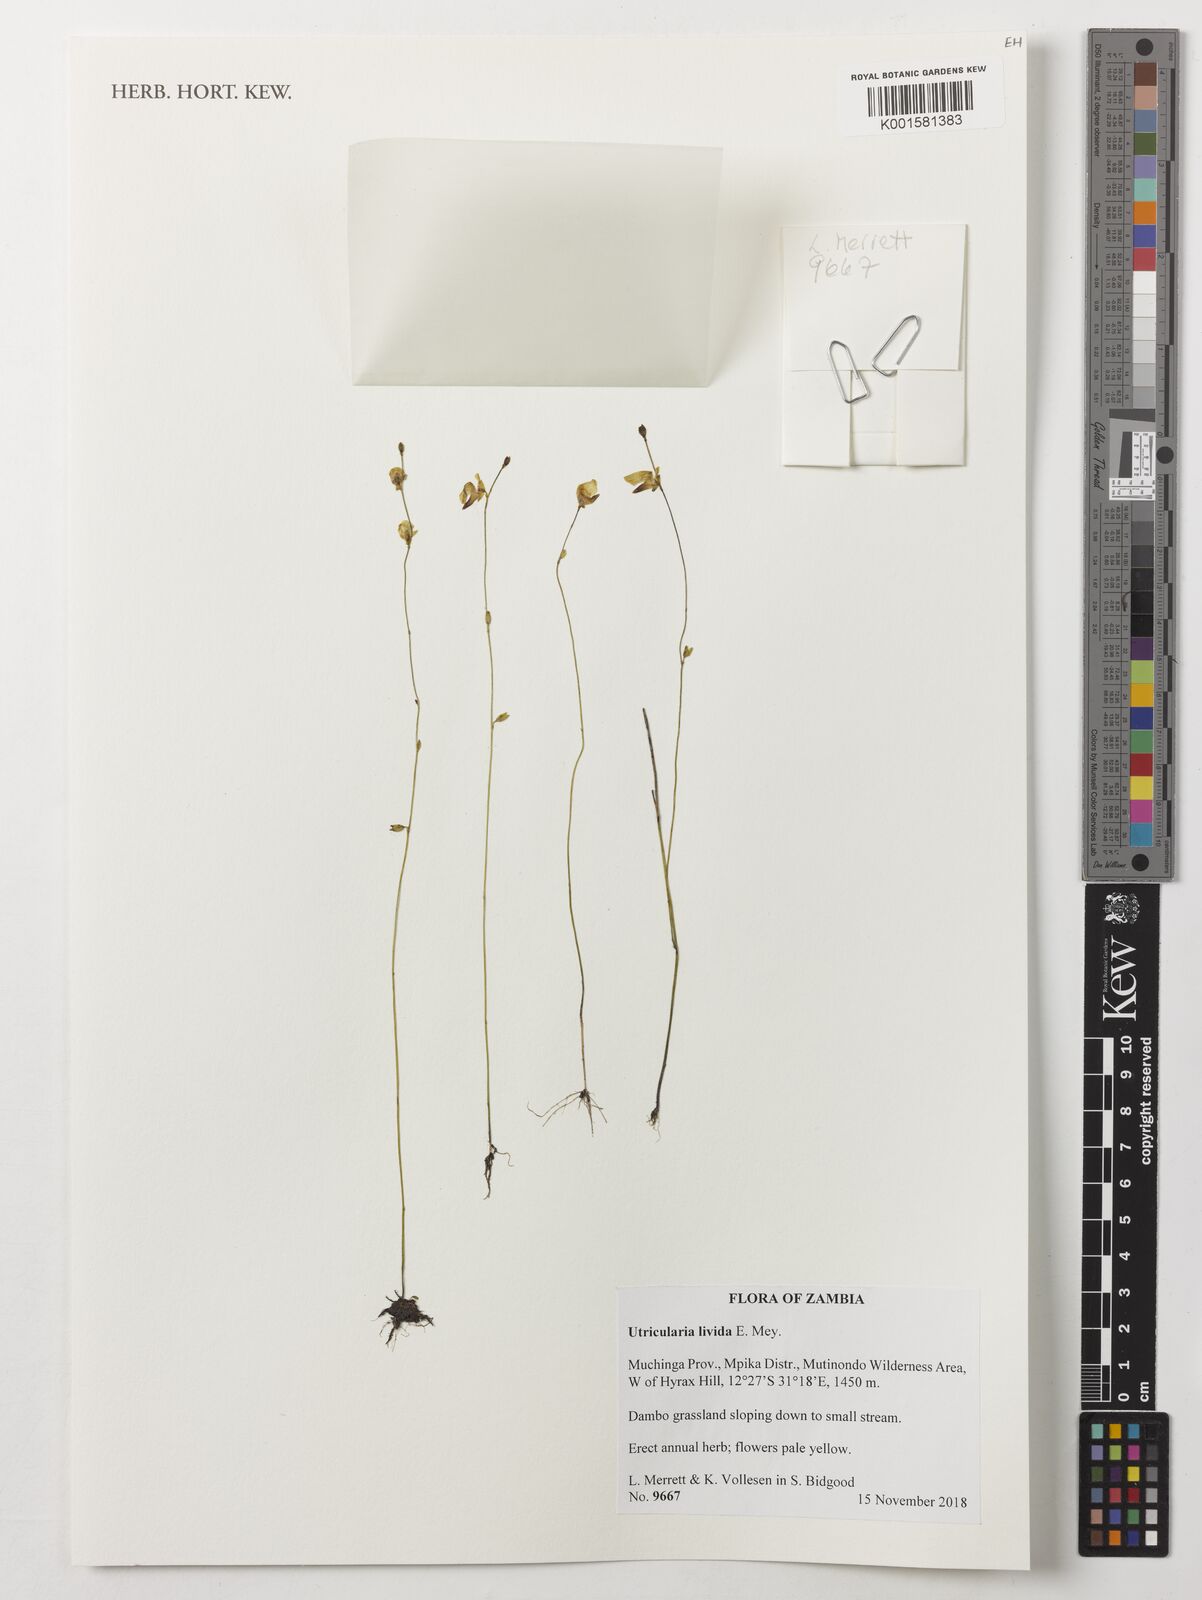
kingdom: Plantae
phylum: Tracheophyta
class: Magnoliopsida
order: Lamiales
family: Lentibulariaceae
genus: Utricularia
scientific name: Utricularia livida
